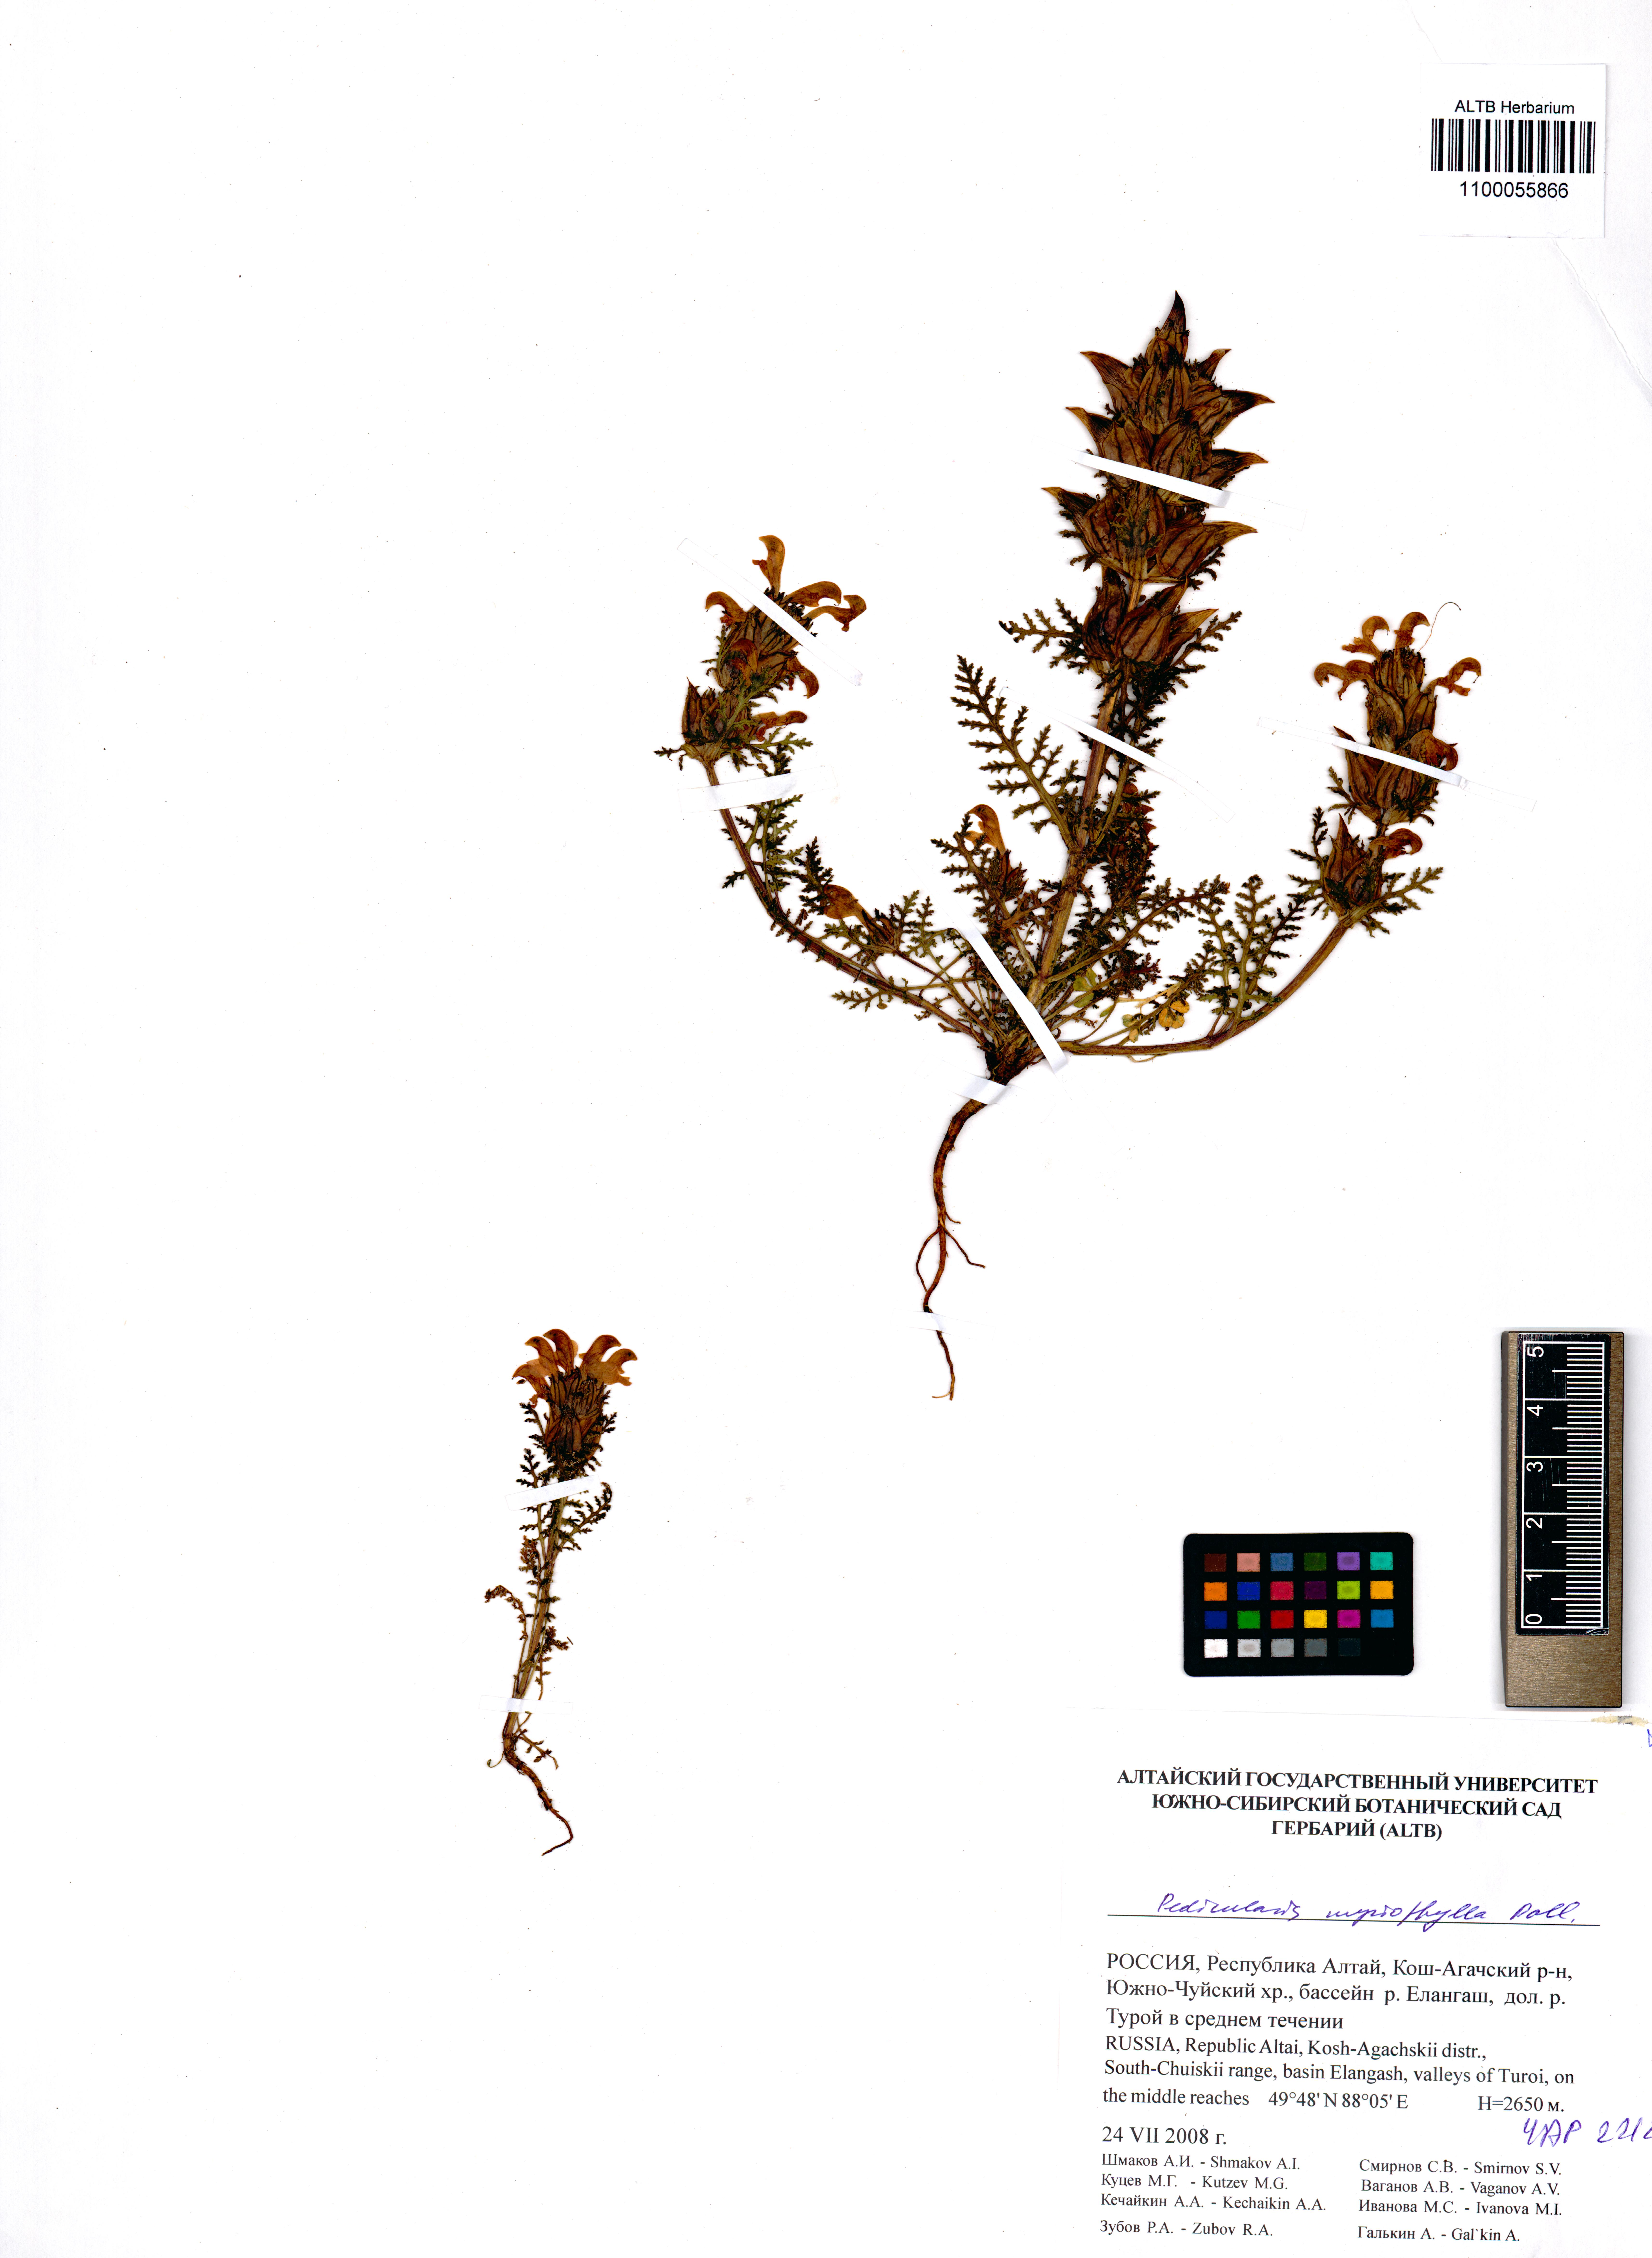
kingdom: Plantae
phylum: Tracheophyta
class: Magnoliopsida
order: Lamiales
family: Orobanchaceae
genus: Pedicularis
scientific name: Pedicularis myriophylla
